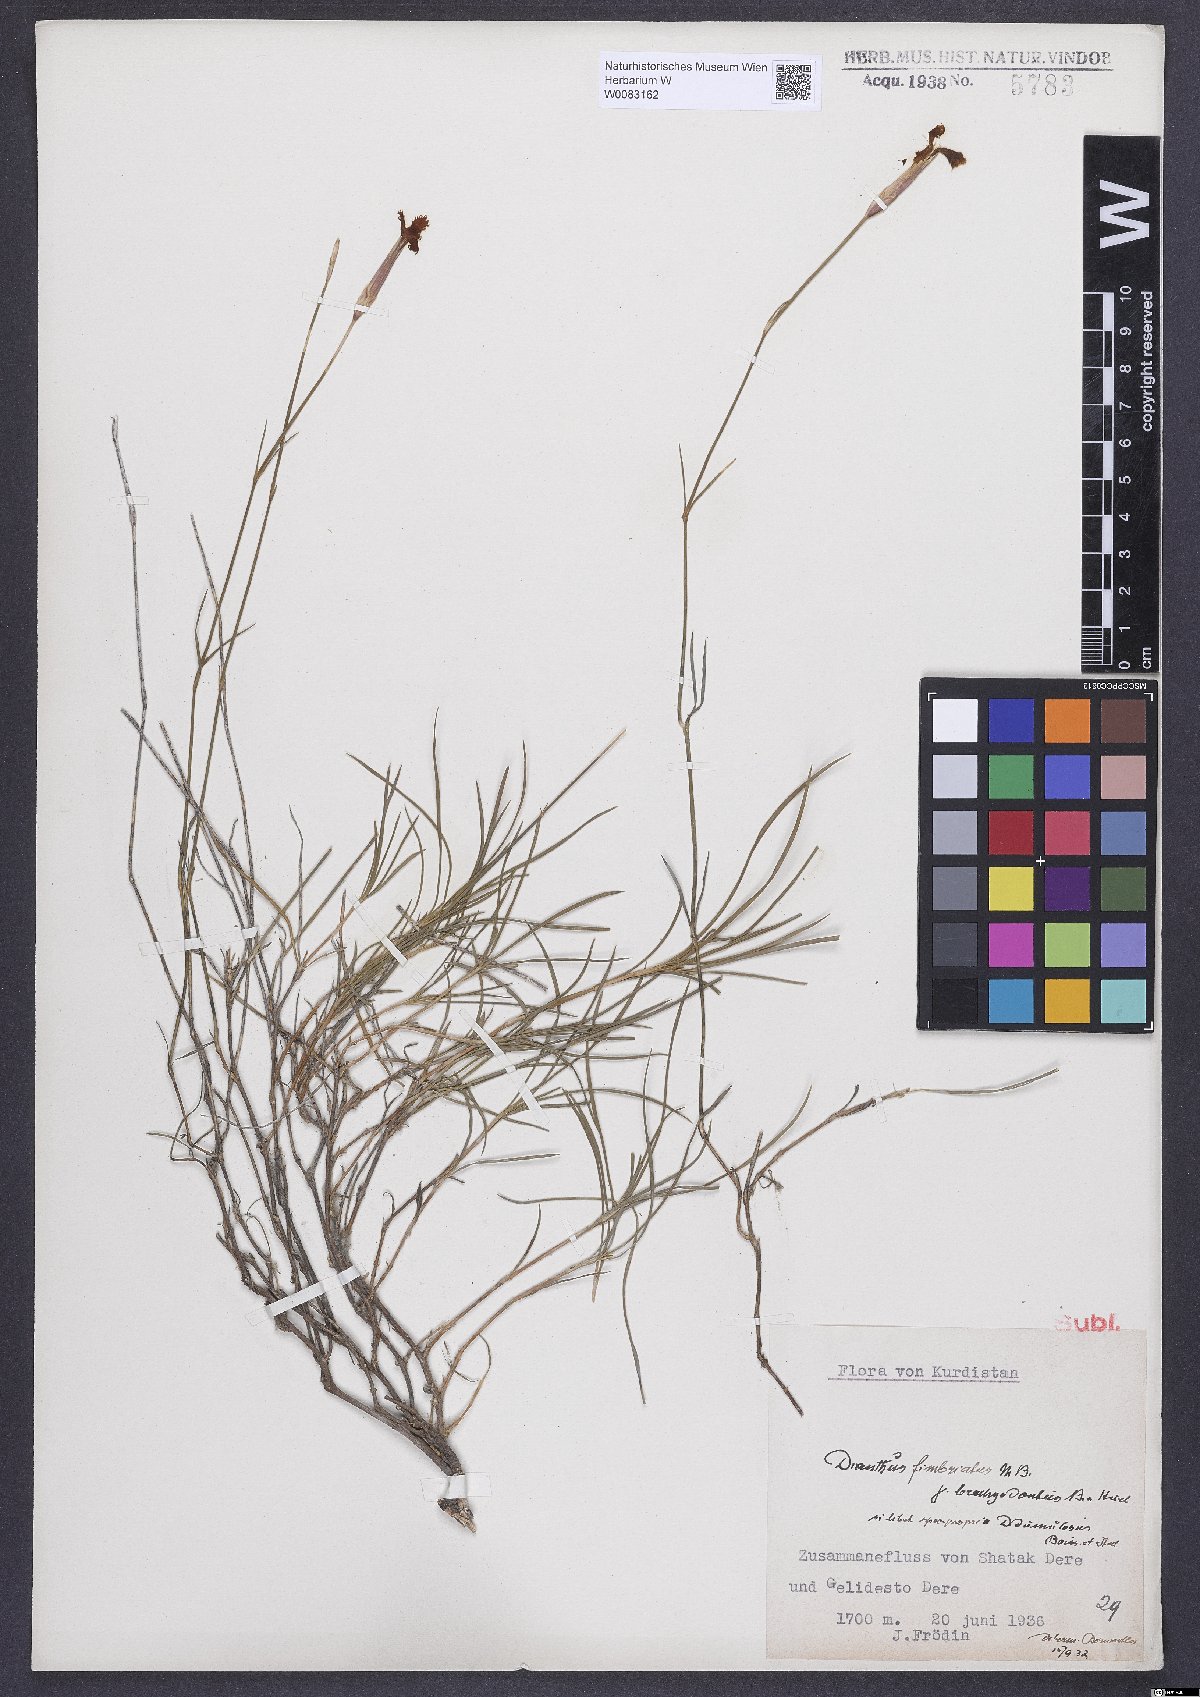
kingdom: Plantae
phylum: Tracheophyta
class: Magnoliopsida
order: Caryophyllales
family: Caryophyllaceae
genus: Dianthus
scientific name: Dianthus orientalis
